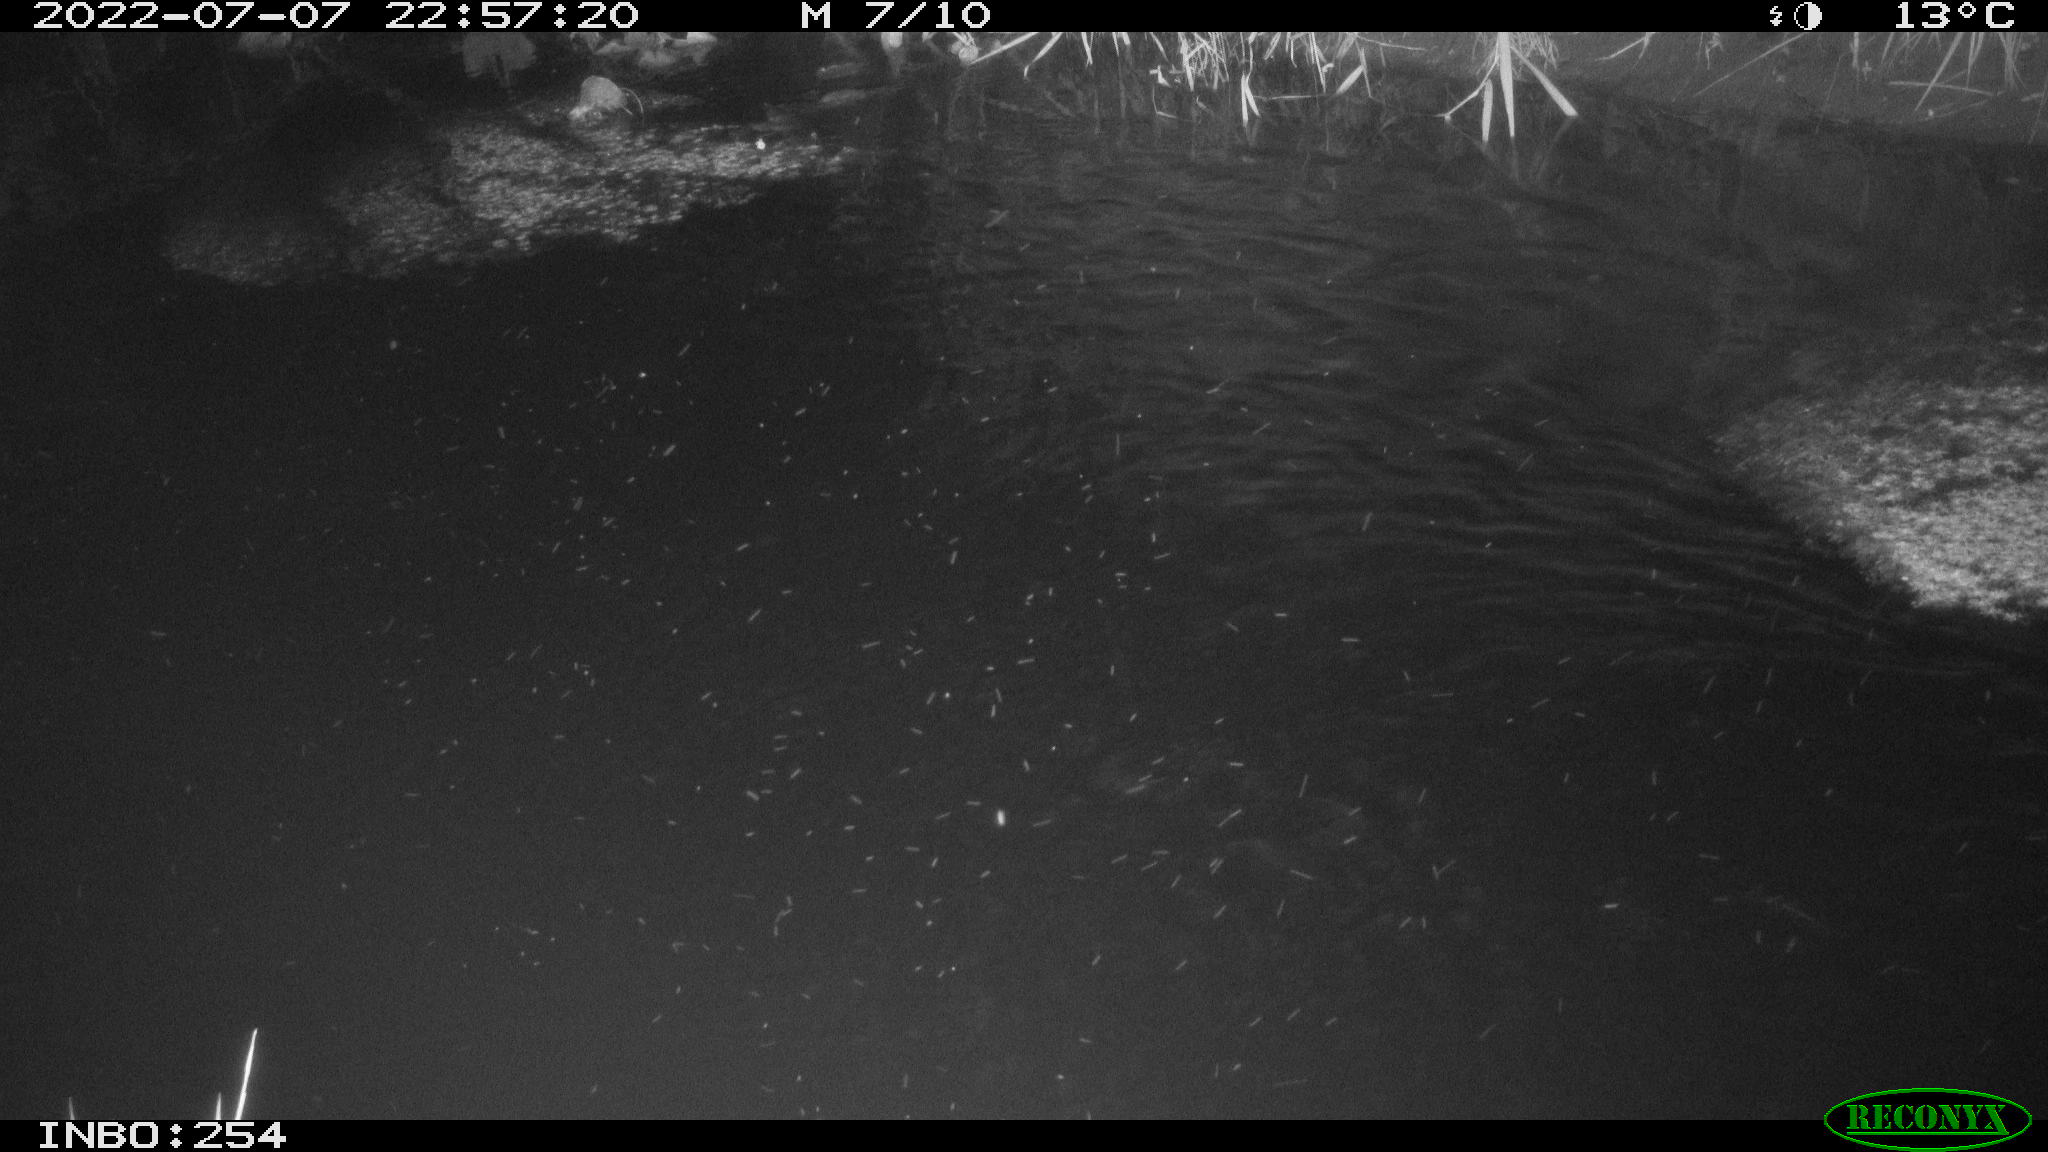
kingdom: Animalia
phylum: Chordata
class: Aves
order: Anseriformes
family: Anatidae
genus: Anas
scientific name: Anas platyrhynchos
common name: Mallard
